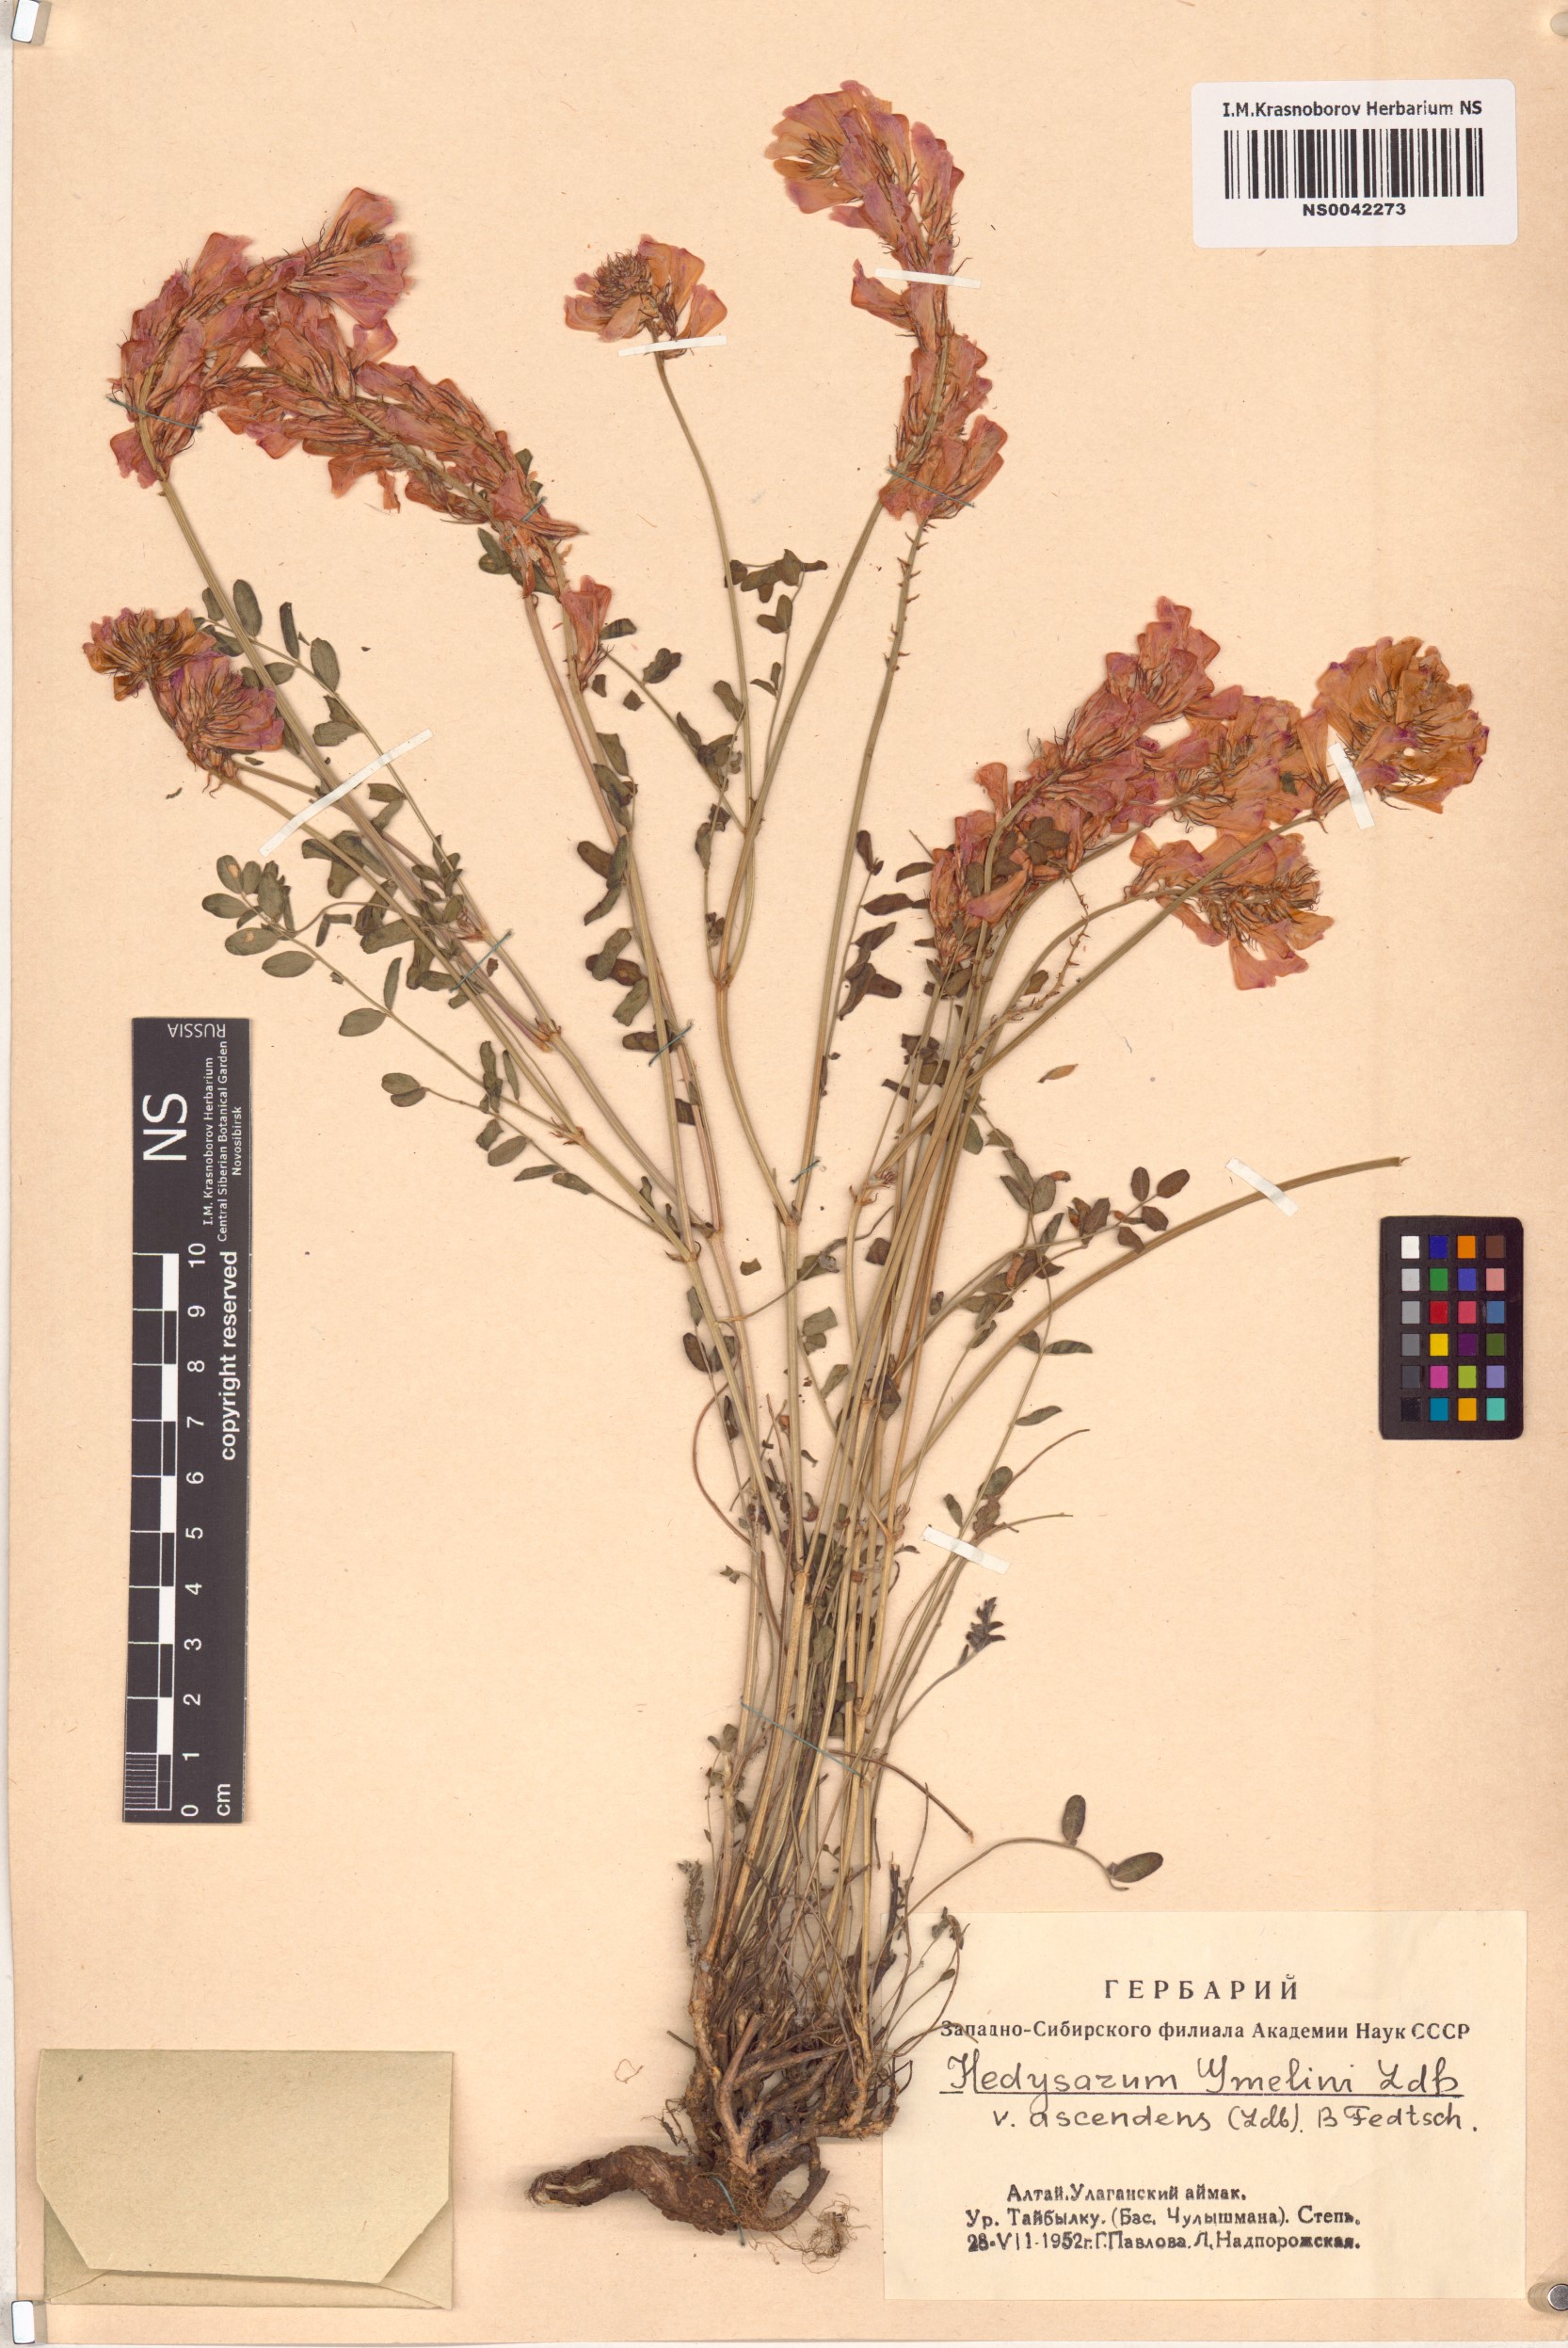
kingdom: Plantae
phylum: Tracheophyta
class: Magnoliopsida
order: Fabales
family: Fabaceae
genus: Hedysarum
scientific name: Hedysarum gmelinii
